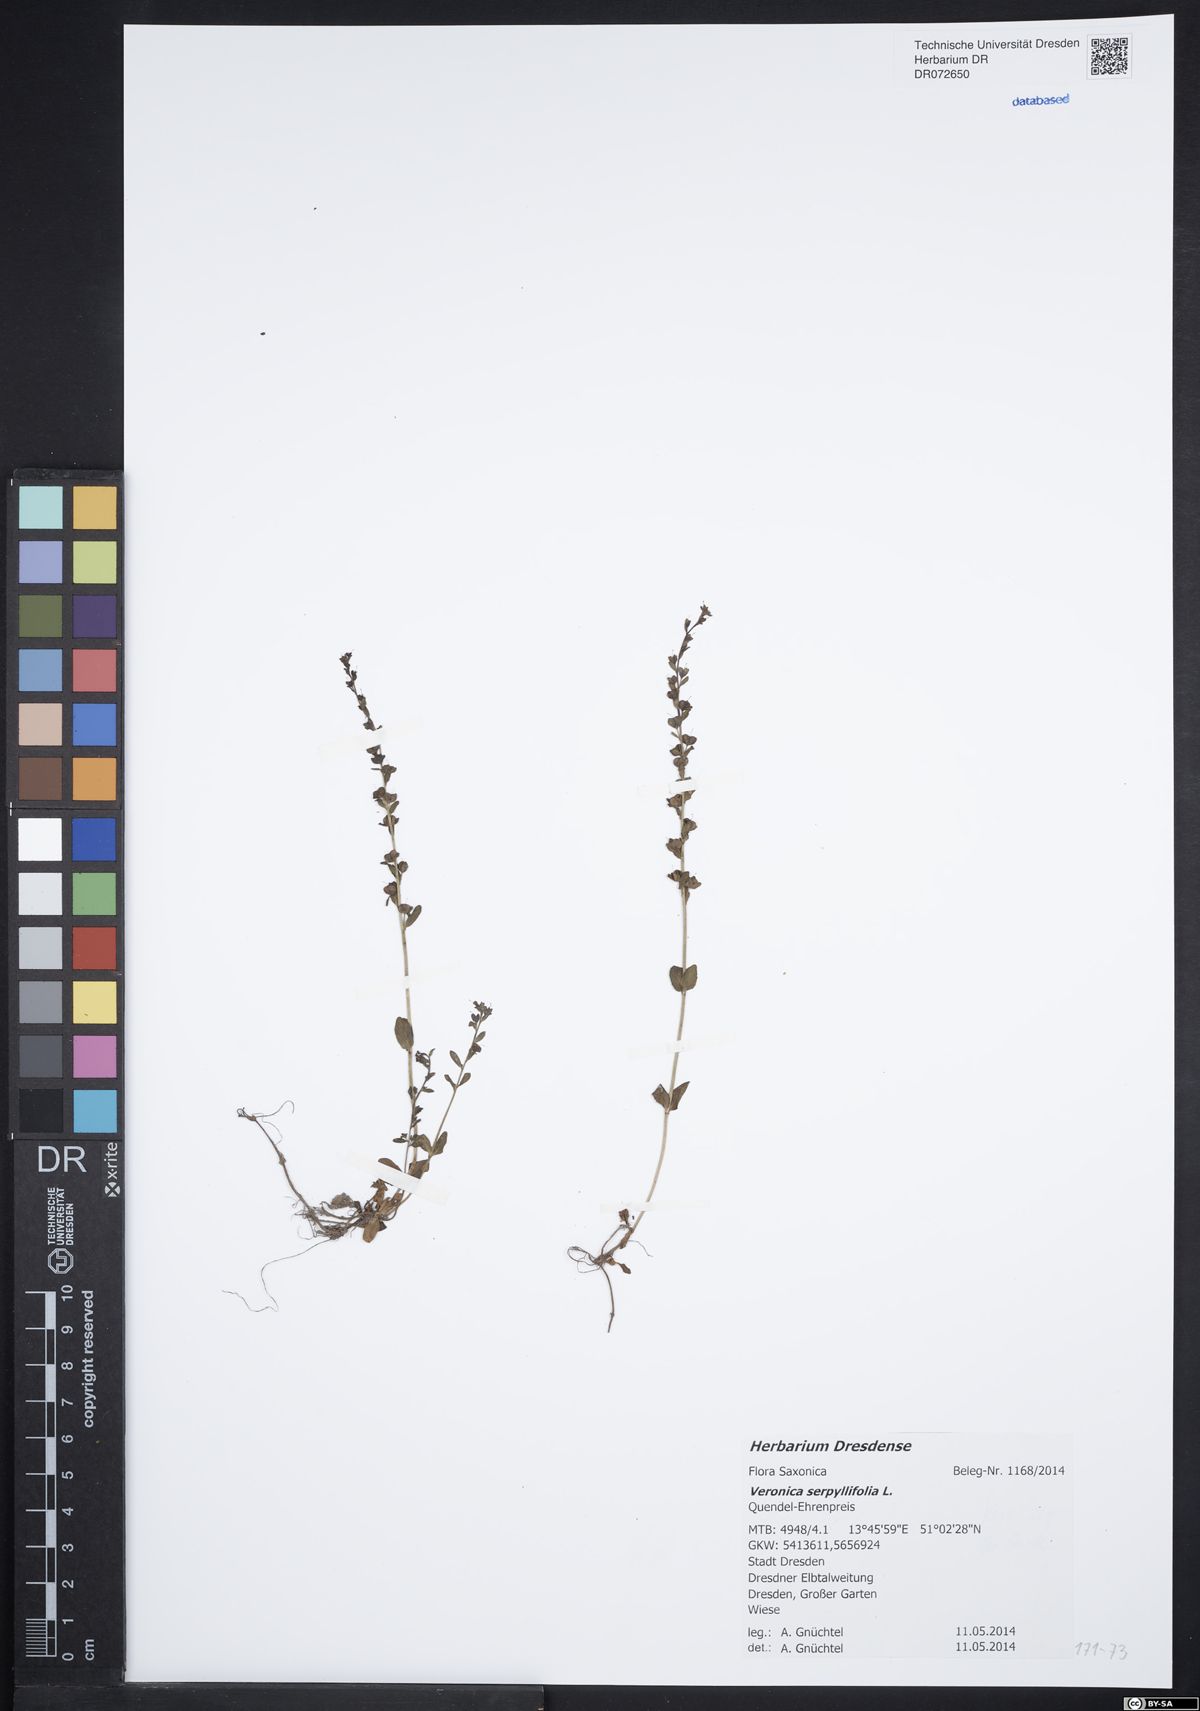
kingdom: Plantae
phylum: Tracheophyta
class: Magnoliopsida
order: Lamiales
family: Plantaginaceae
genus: Veronica
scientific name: Veronica serpyllifolia
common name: Thyme-leaved speedwell
